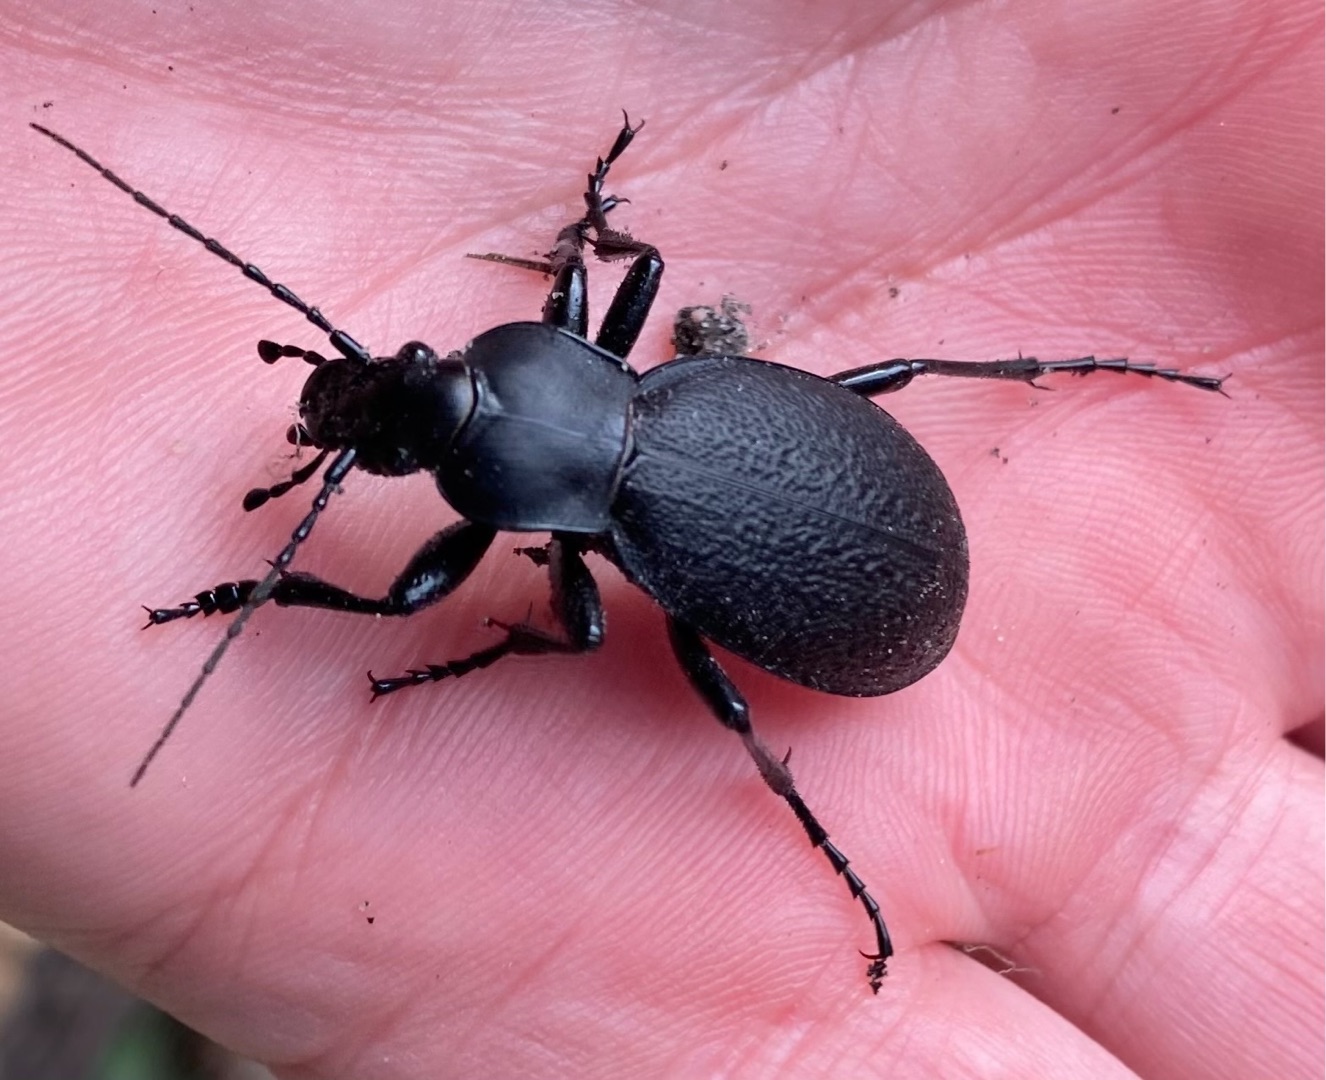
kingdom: Animalia
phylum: Arthropoda
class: Insecta
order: Coleoptera
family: Carabidae
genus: Carabus
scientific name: Carabus coriaceus
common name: Læderløber
